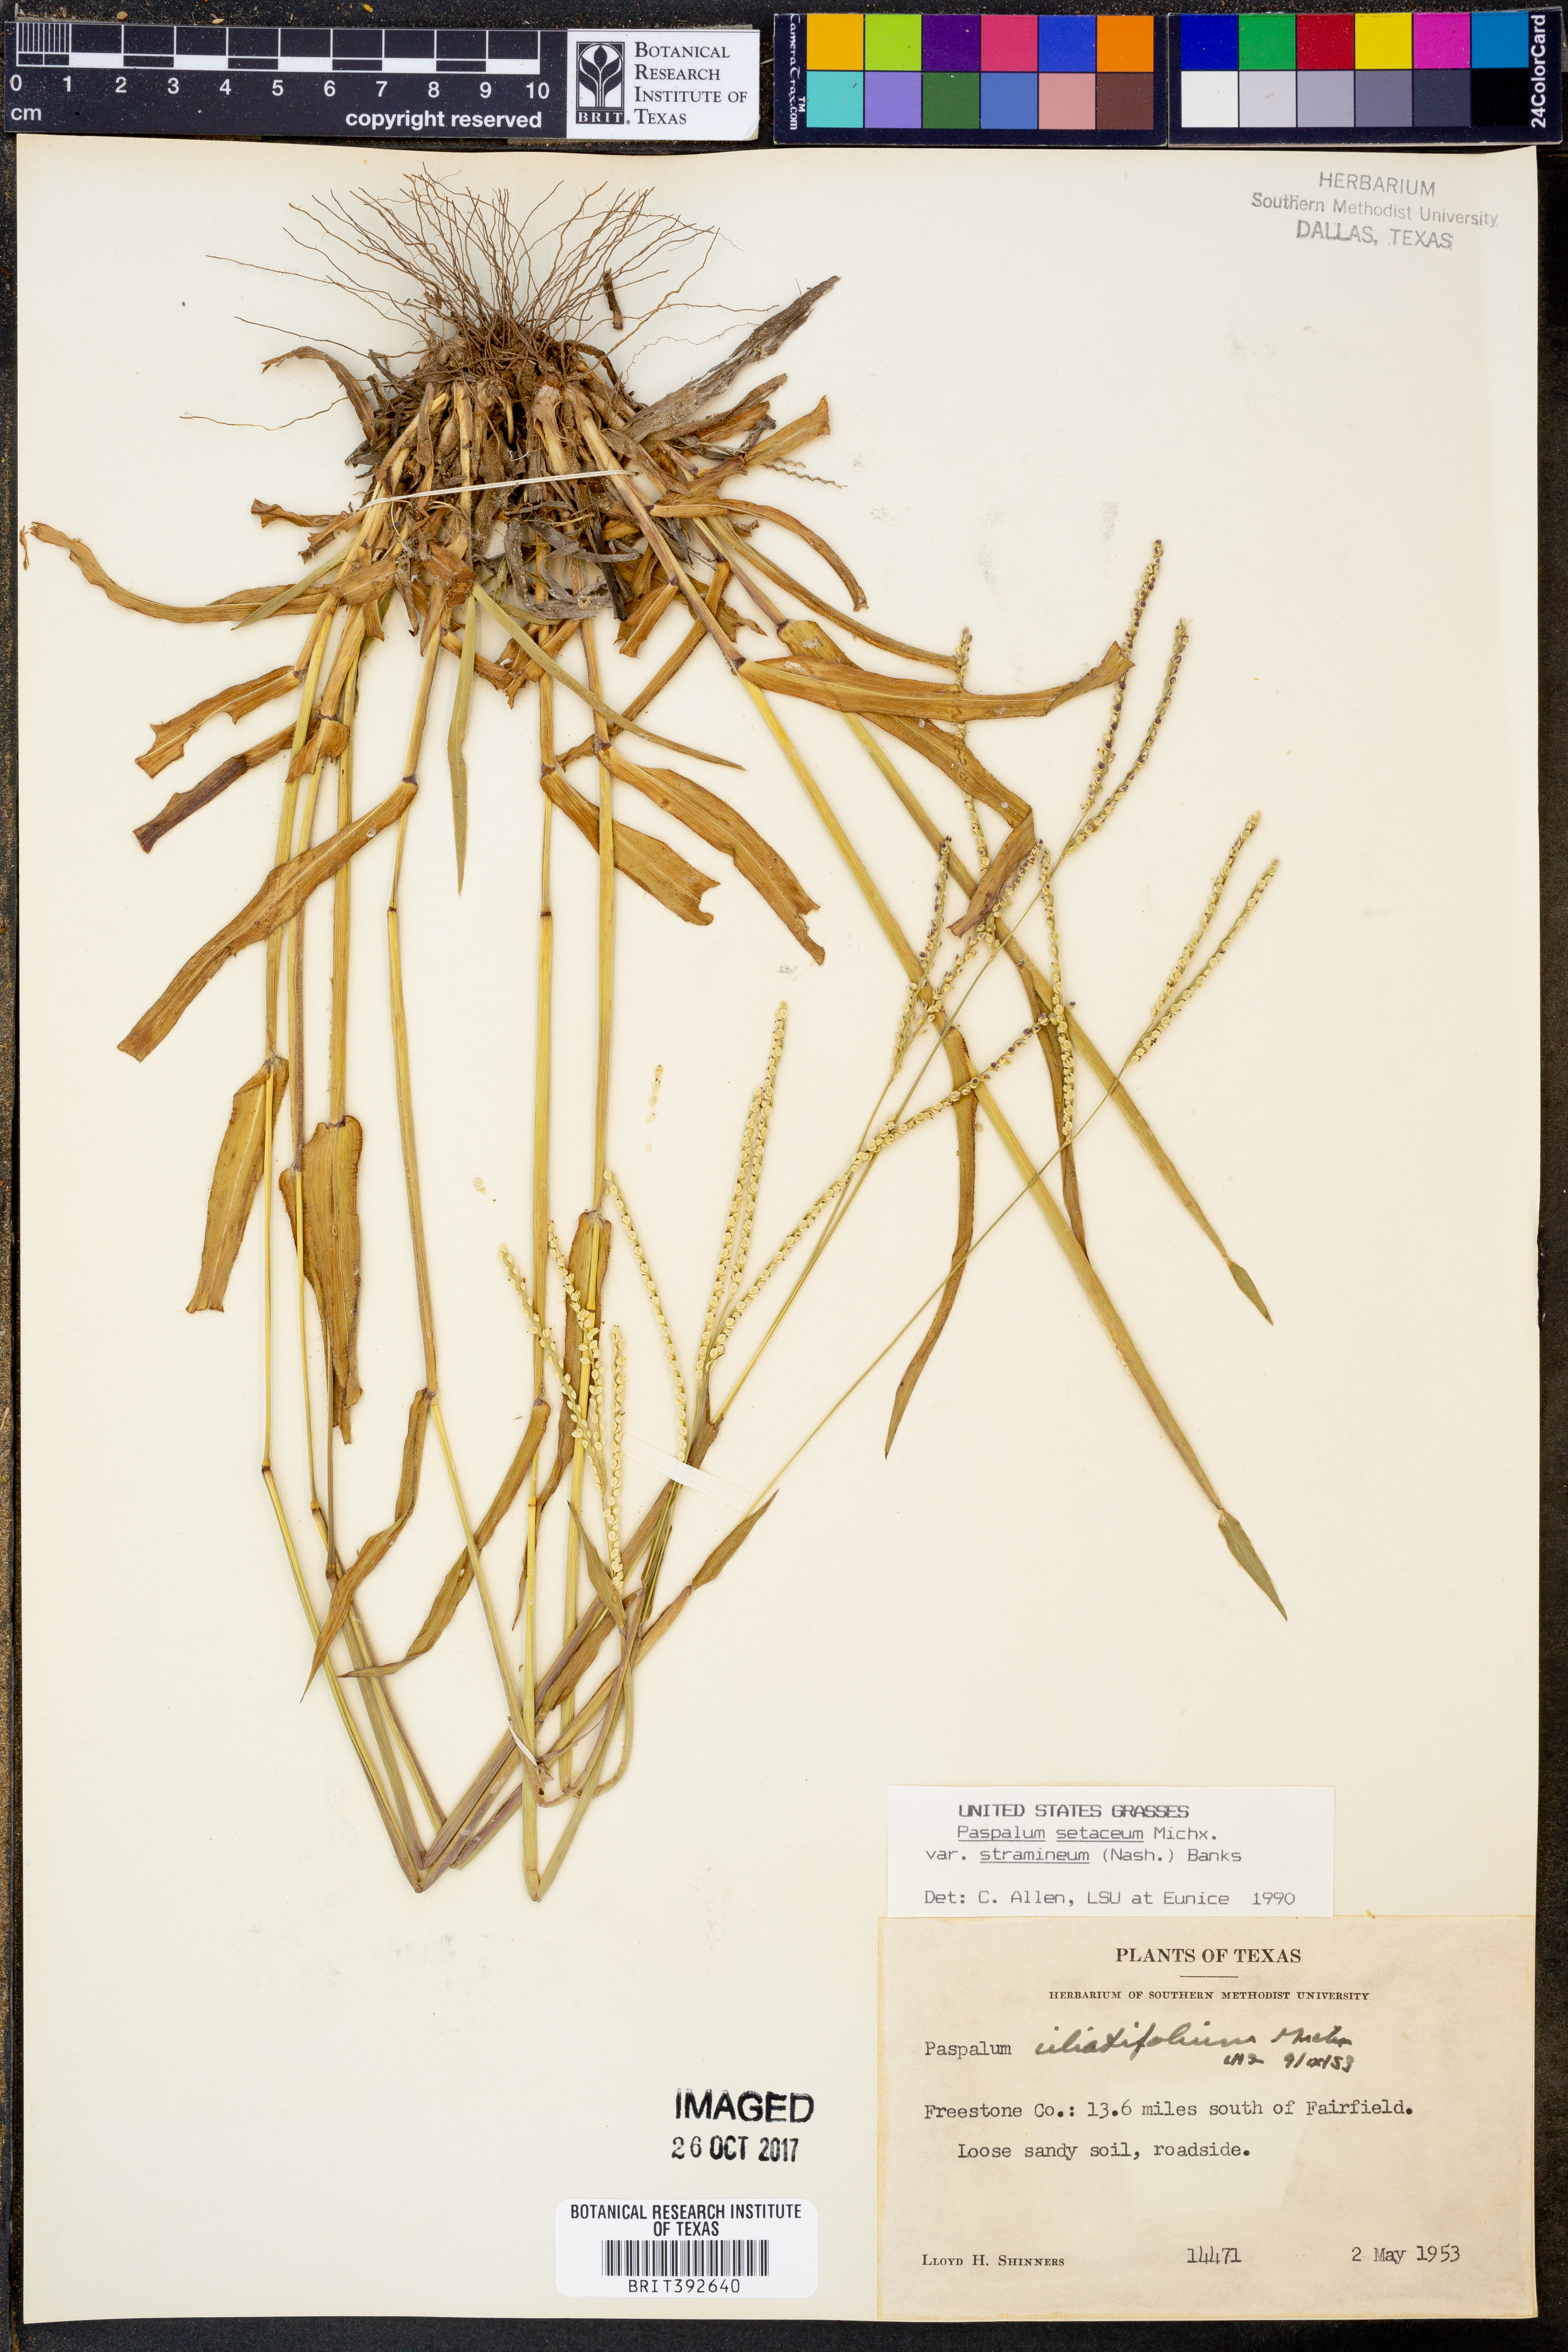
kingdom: Plantae
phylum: Tracheophyta
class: Liliopsida
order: Poales
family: Poaceae
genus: Paspalum
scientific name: Paspalum setaceum
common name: Slender paspalum
